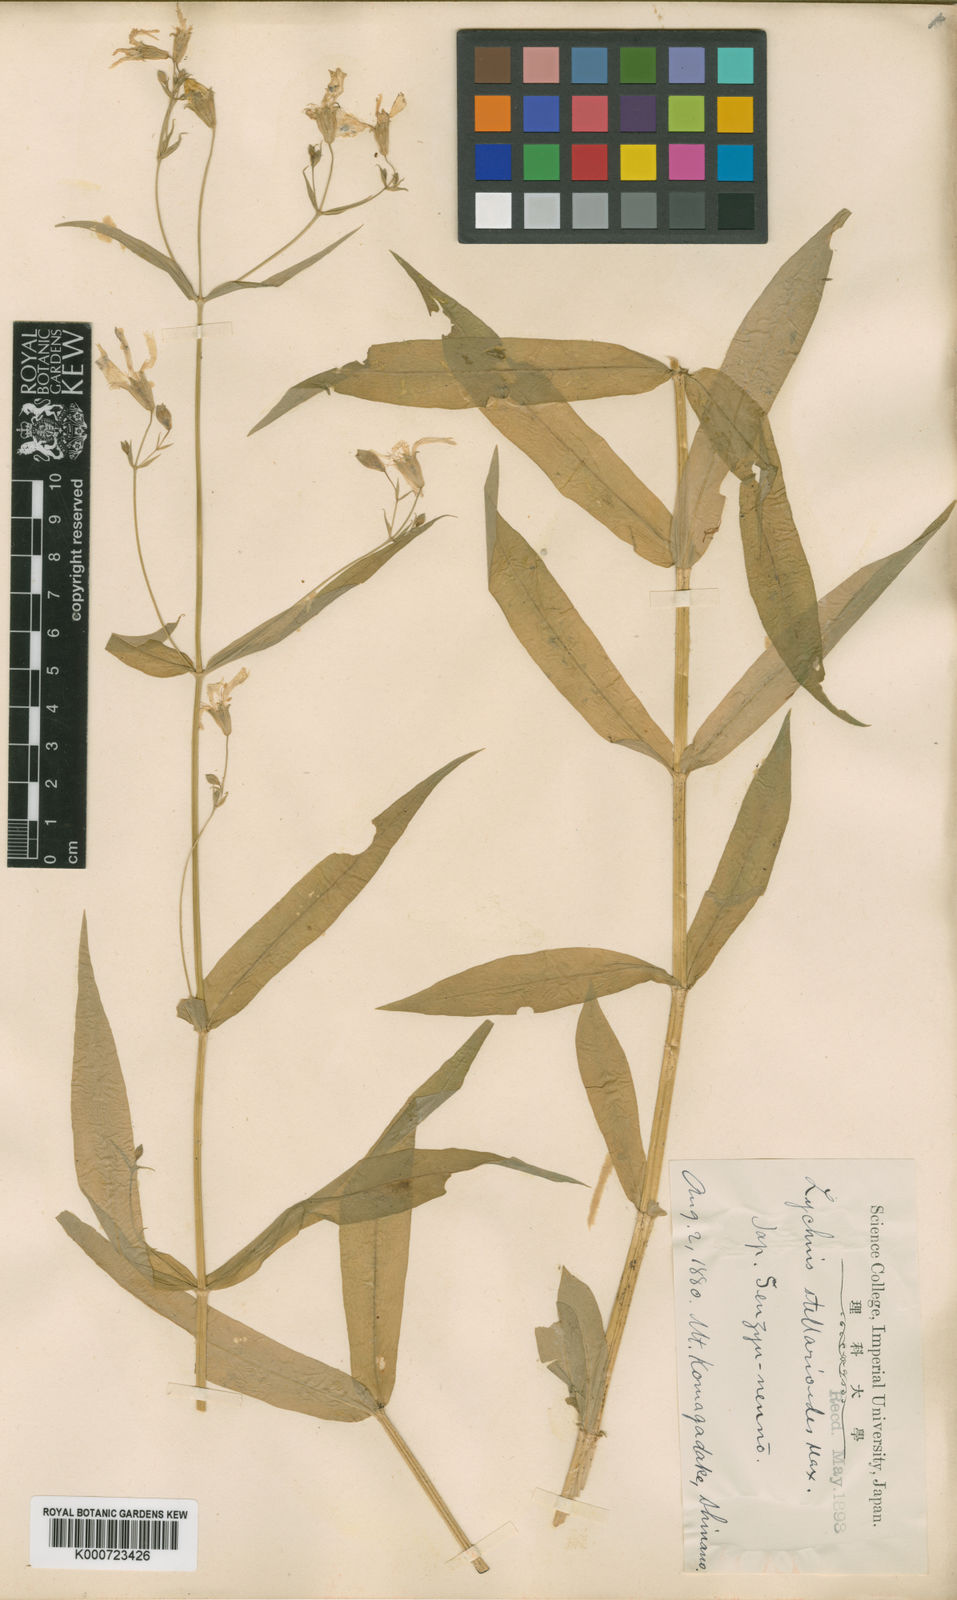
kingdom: Plantae
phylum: Tracheophyta
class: Magnoliopsida
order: Caryophyllales
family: Caryophyllaceae
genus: Silene
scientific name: Silene gracillima
